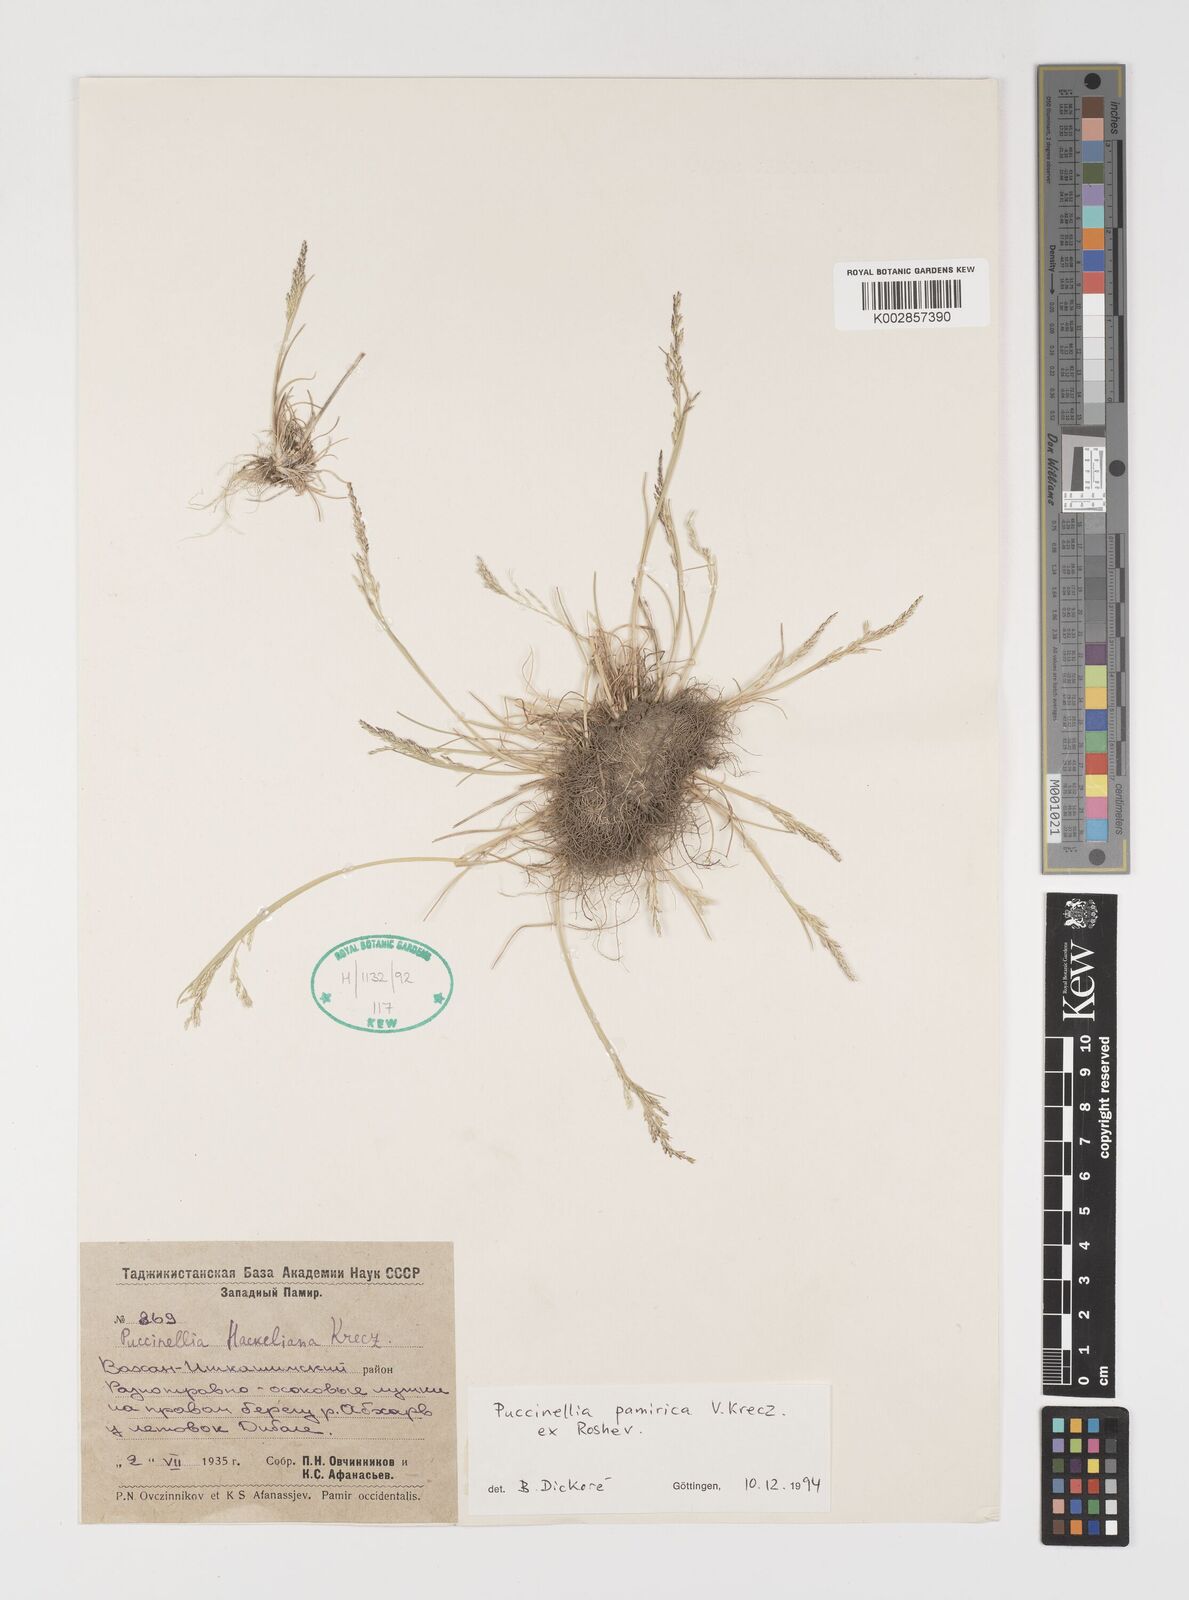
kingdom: Plantae
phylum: Tracheophyta
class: Liliopsida
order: Poales
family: Poaceae
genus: Puccinellia
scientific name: Puccinellia pamirica
